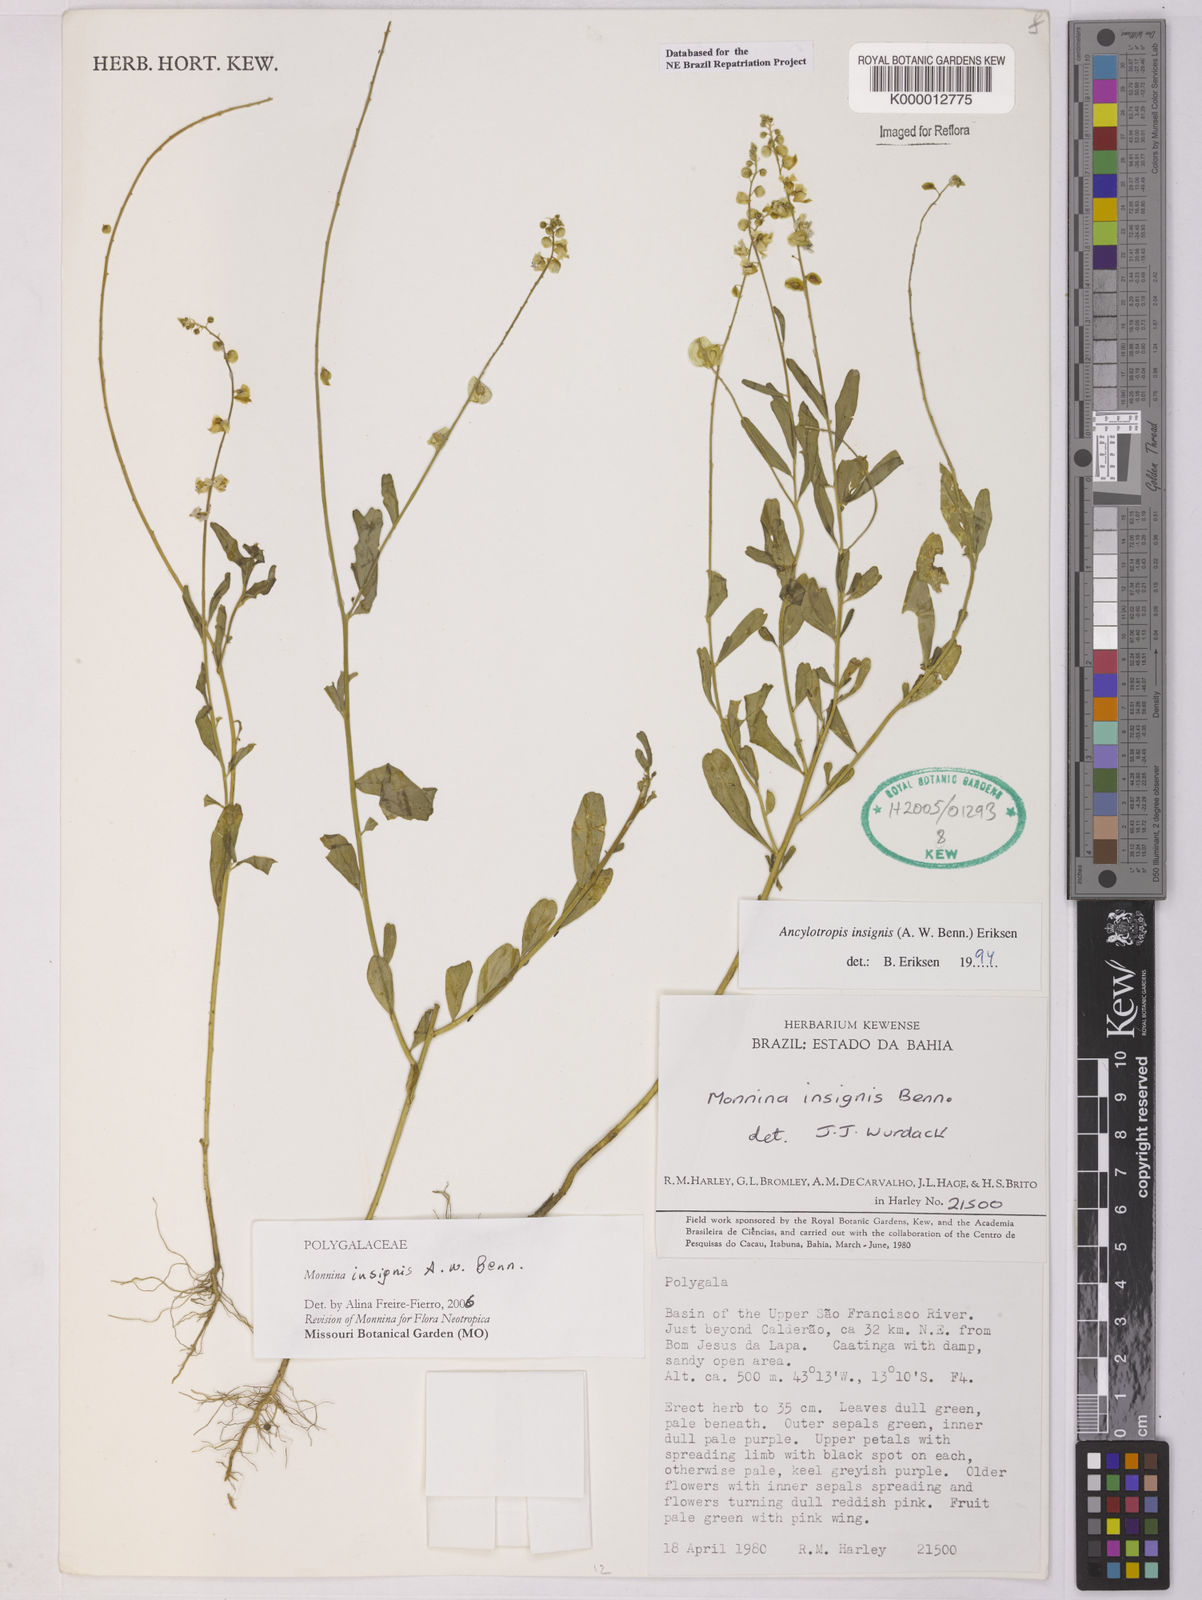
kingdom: Plantae
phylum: Tracheophyta
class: Magnoliopsida
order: Fabales
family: Polygalaceae
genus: Ancylotropis
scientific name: Ancylotropis insignis
